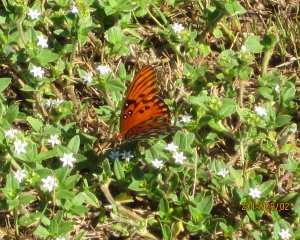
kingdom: Animalia
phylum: Arthropoda
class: Insecta
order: Lepidoptera
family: Nymphalidae
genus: Dione
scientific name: Dione vanillae
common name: Gulf Fritillary
